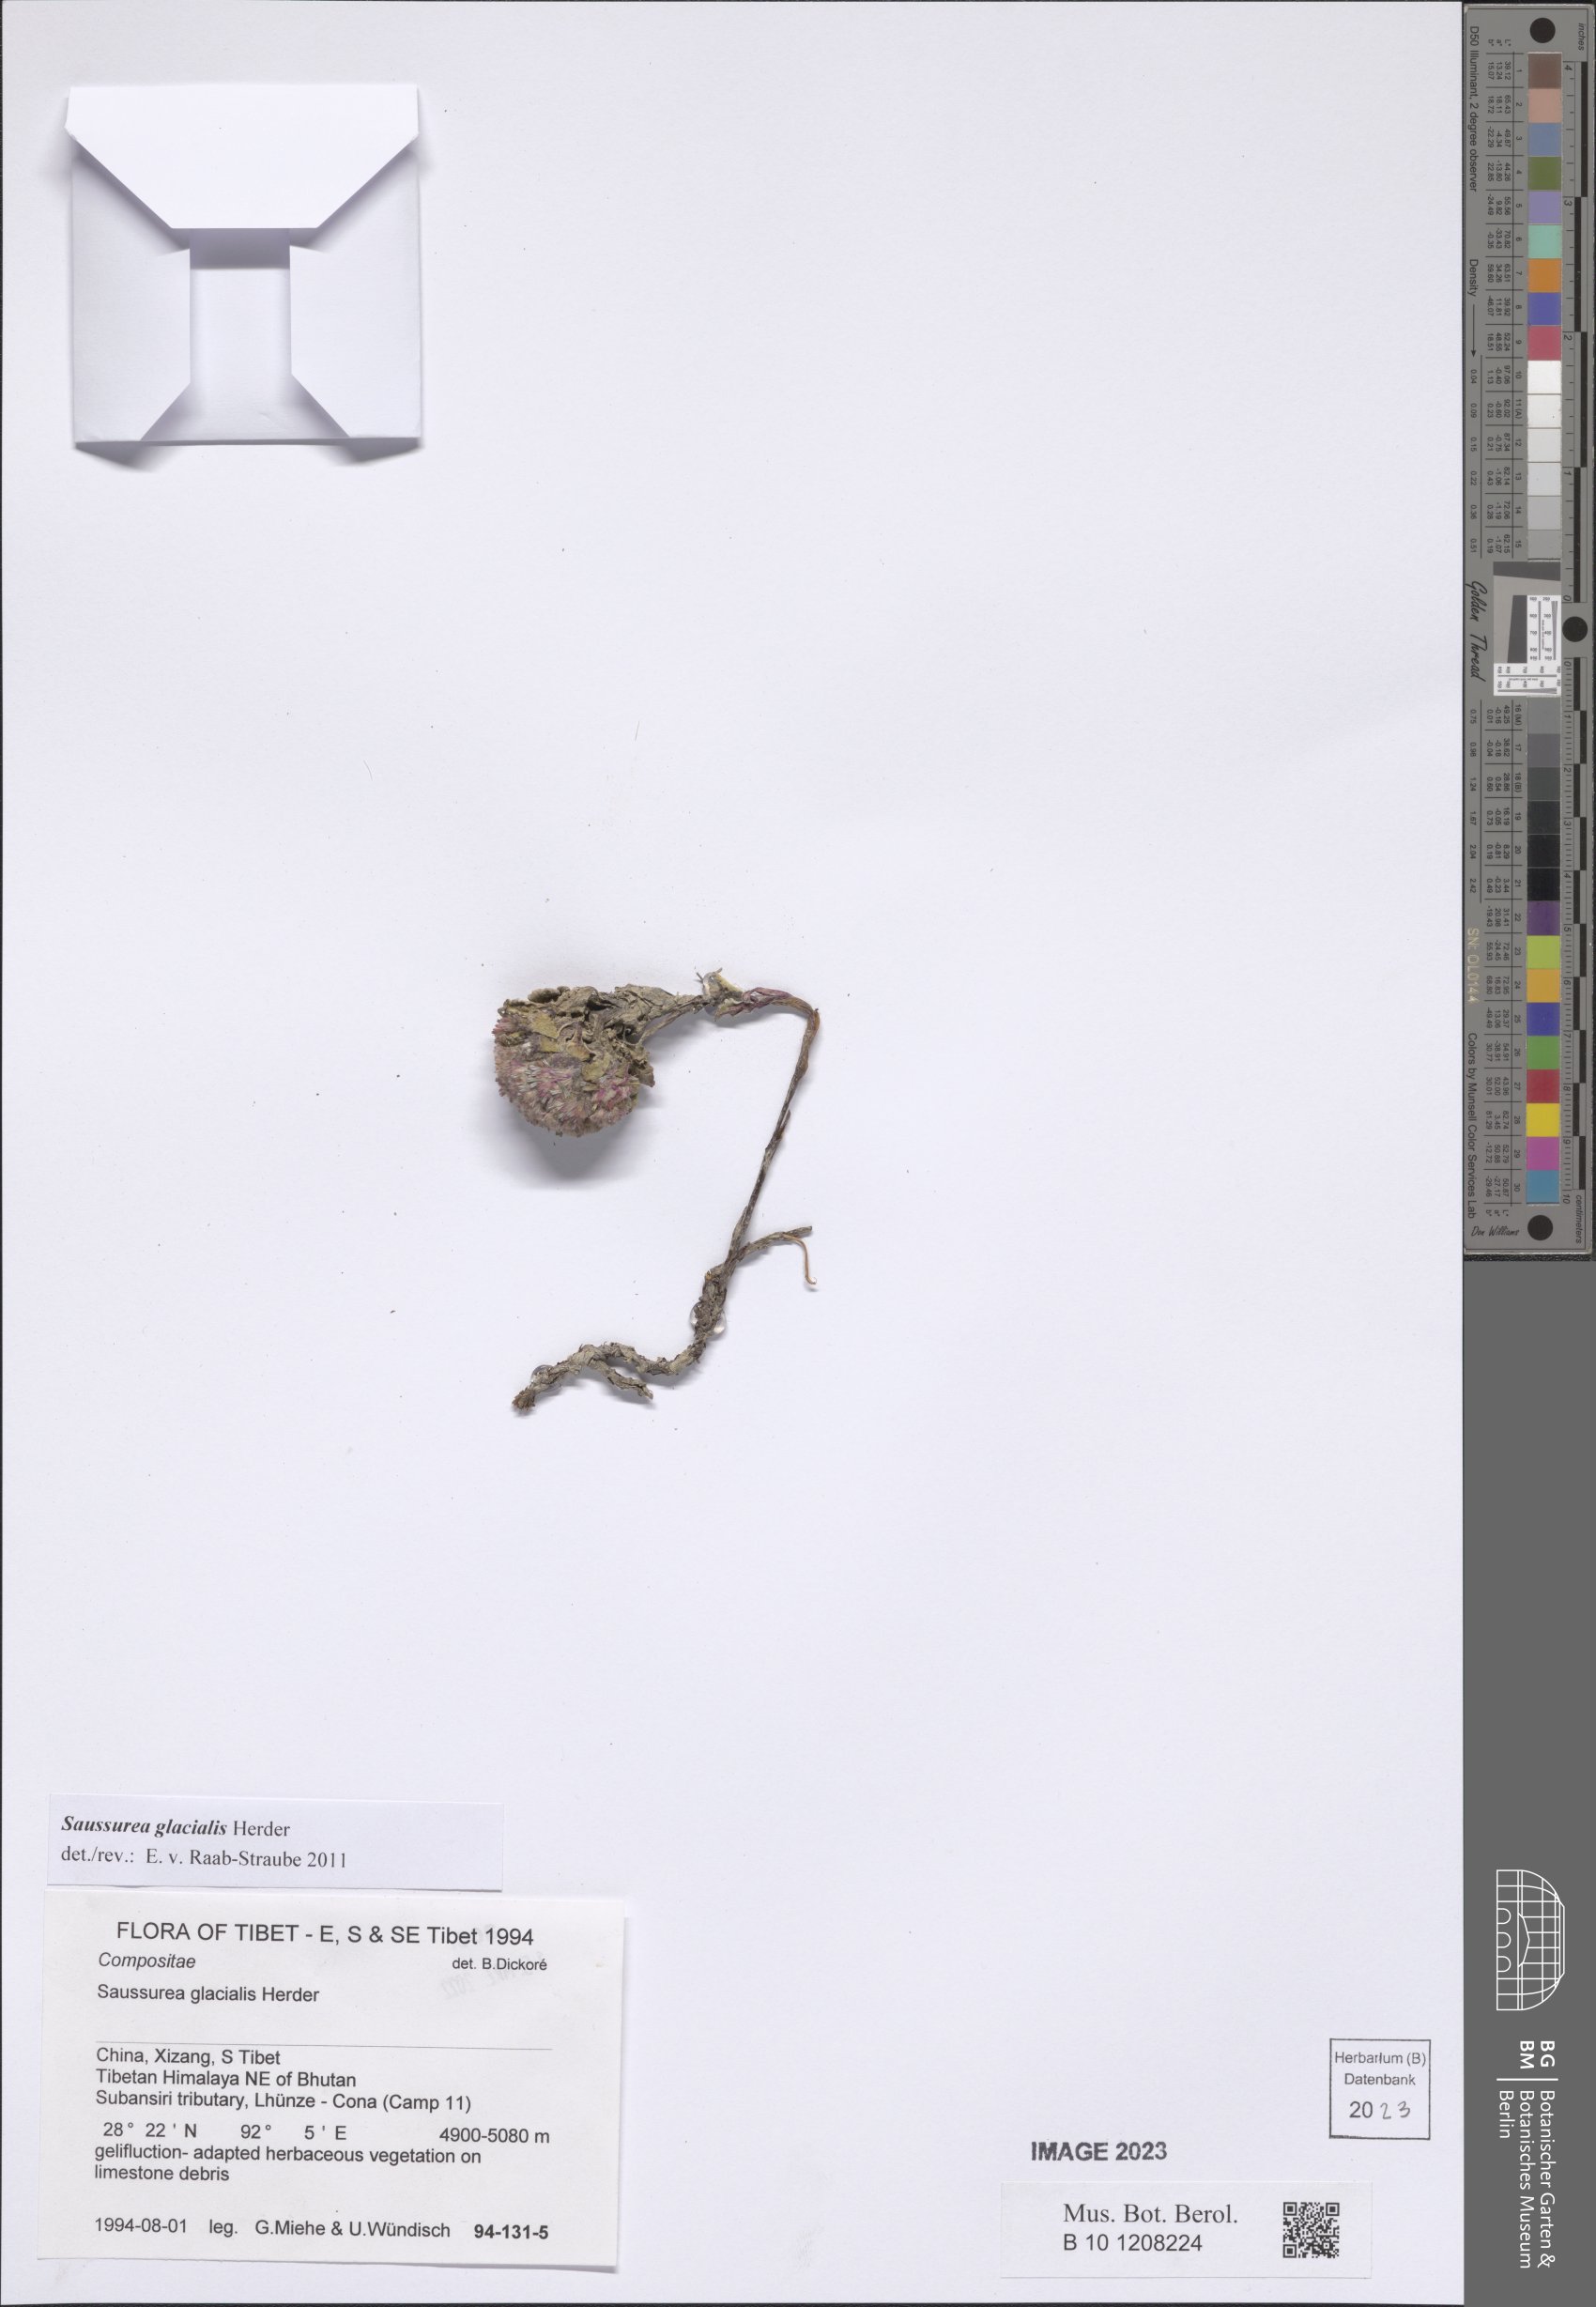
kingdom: Plantae
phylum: Tracheophyta
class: Magnoliopsida
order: Asterales
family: Asteraceae
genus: Saussurea
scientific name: Saussurea glacialis
